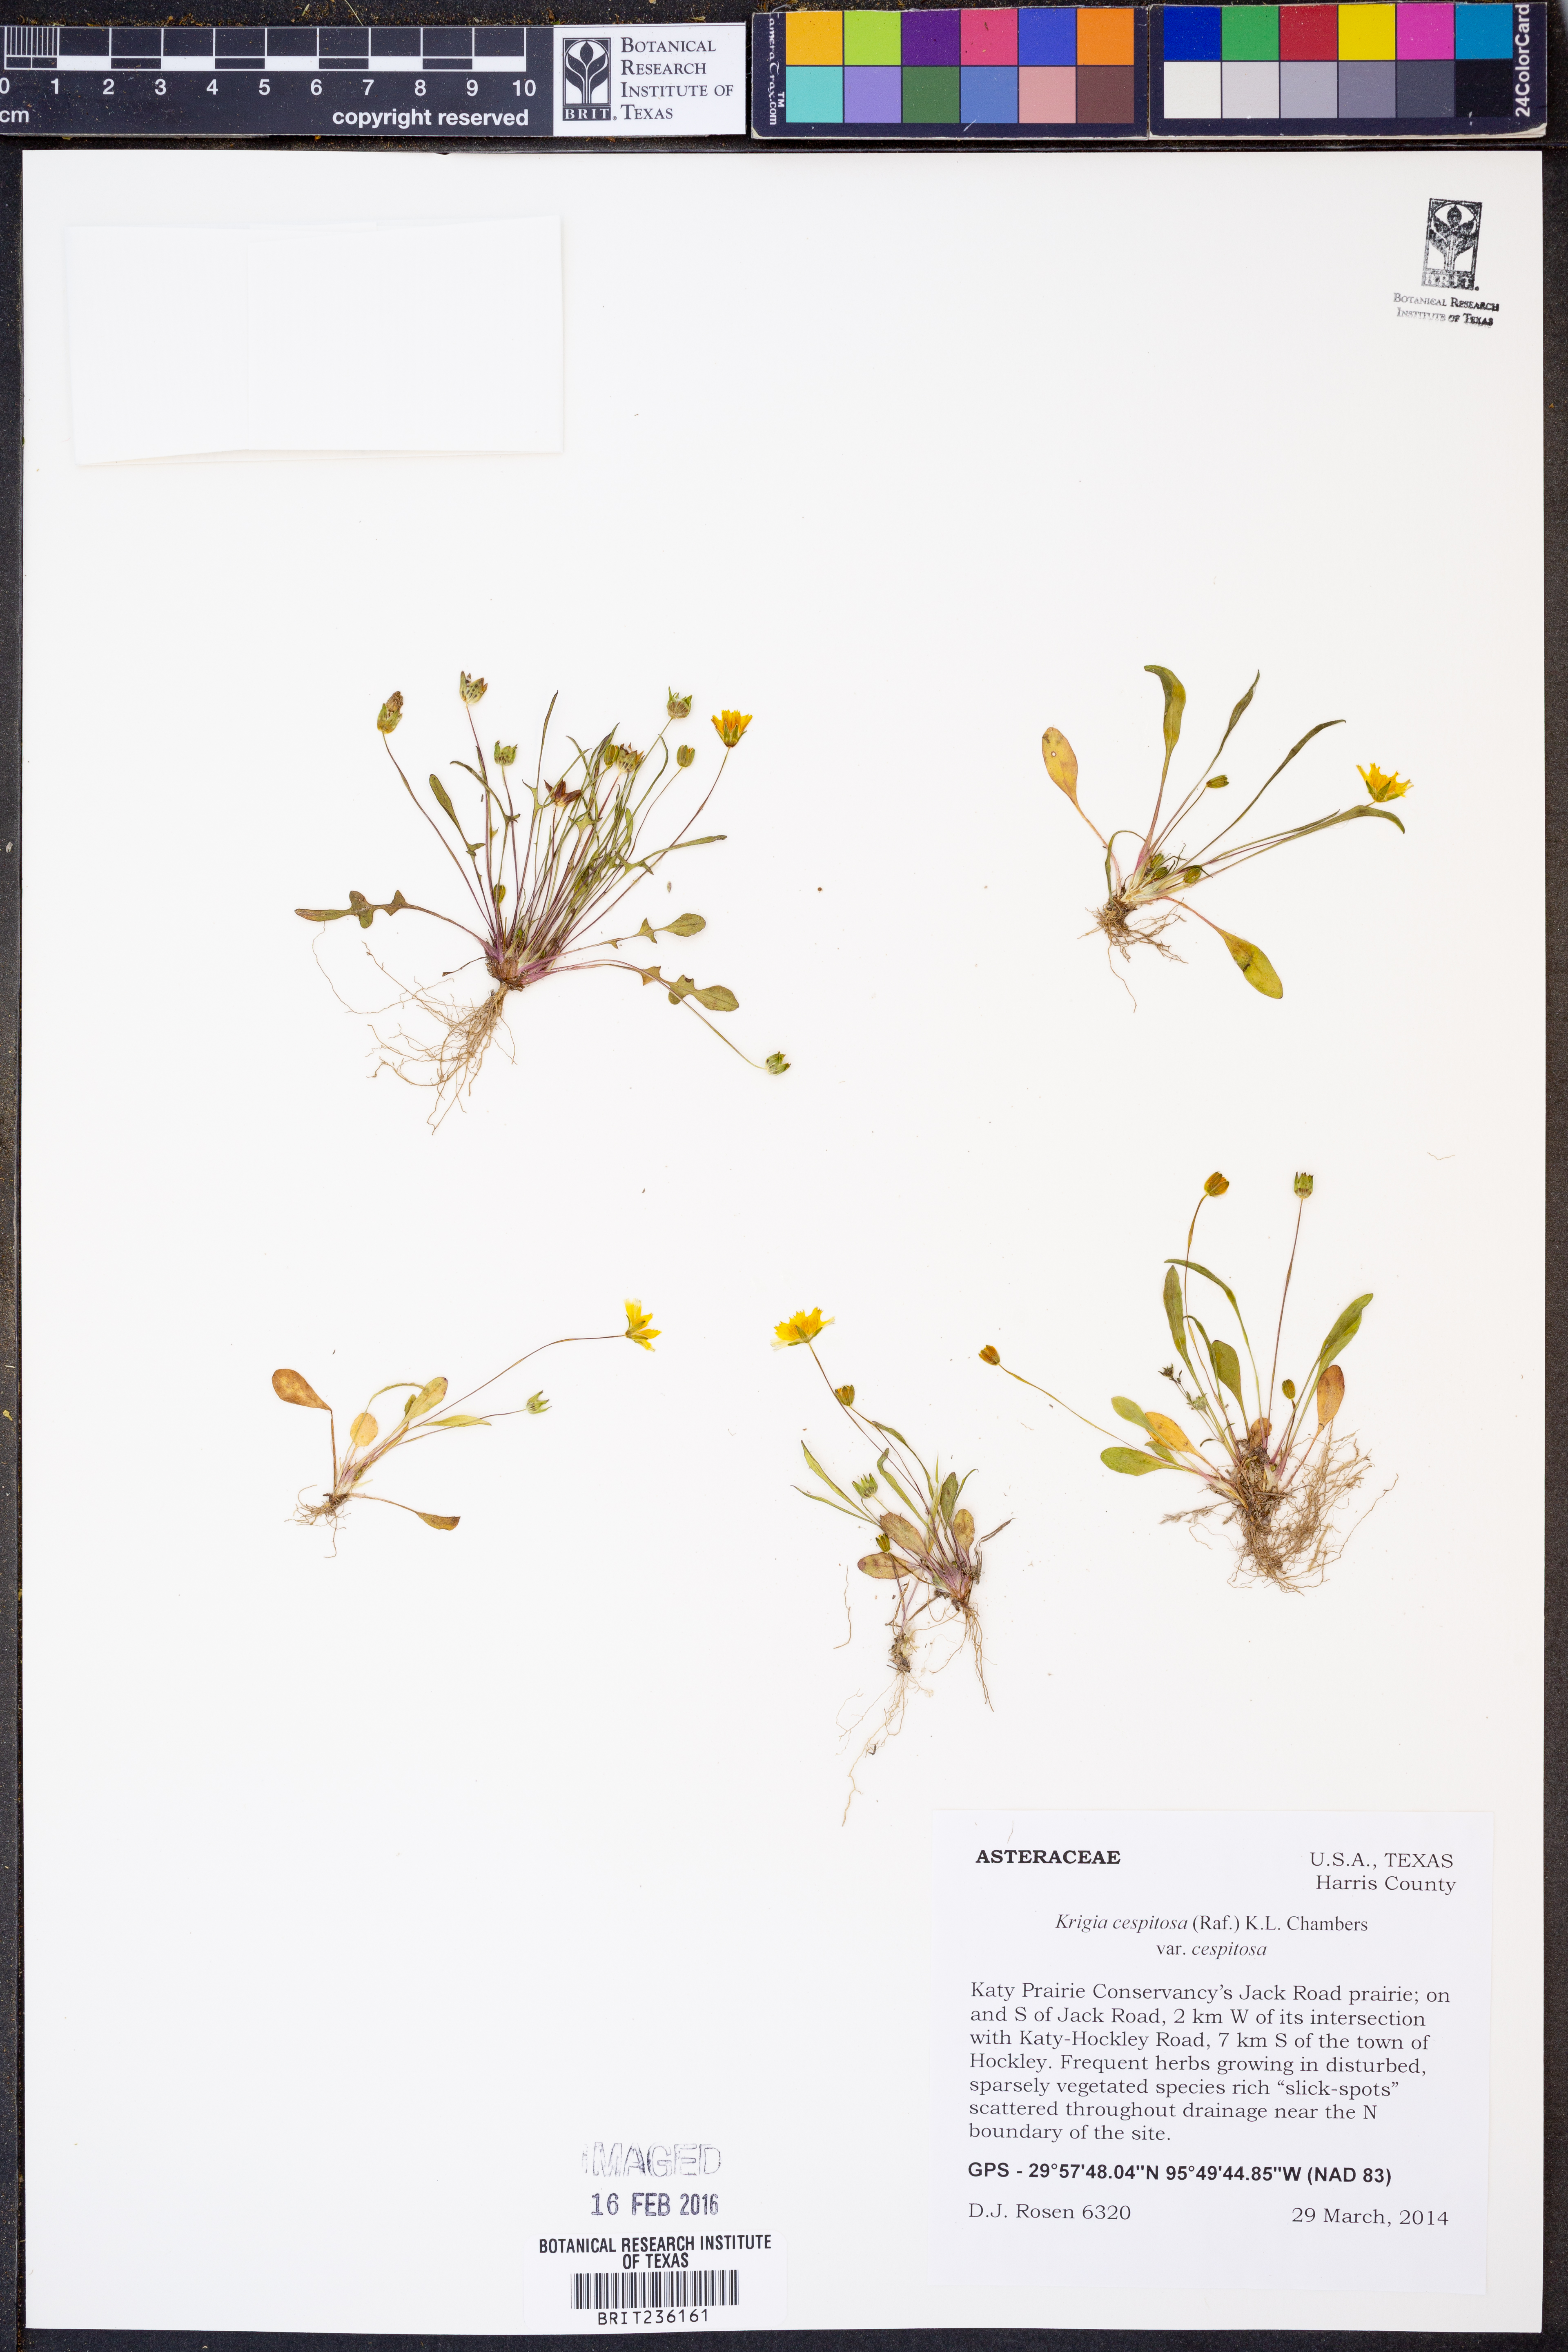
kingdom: Plantae
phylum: Tracheophyta
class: Magnoliopsida
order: Asterales
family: Asteraceae
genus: Krigia
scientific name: Krigia cespitosa
